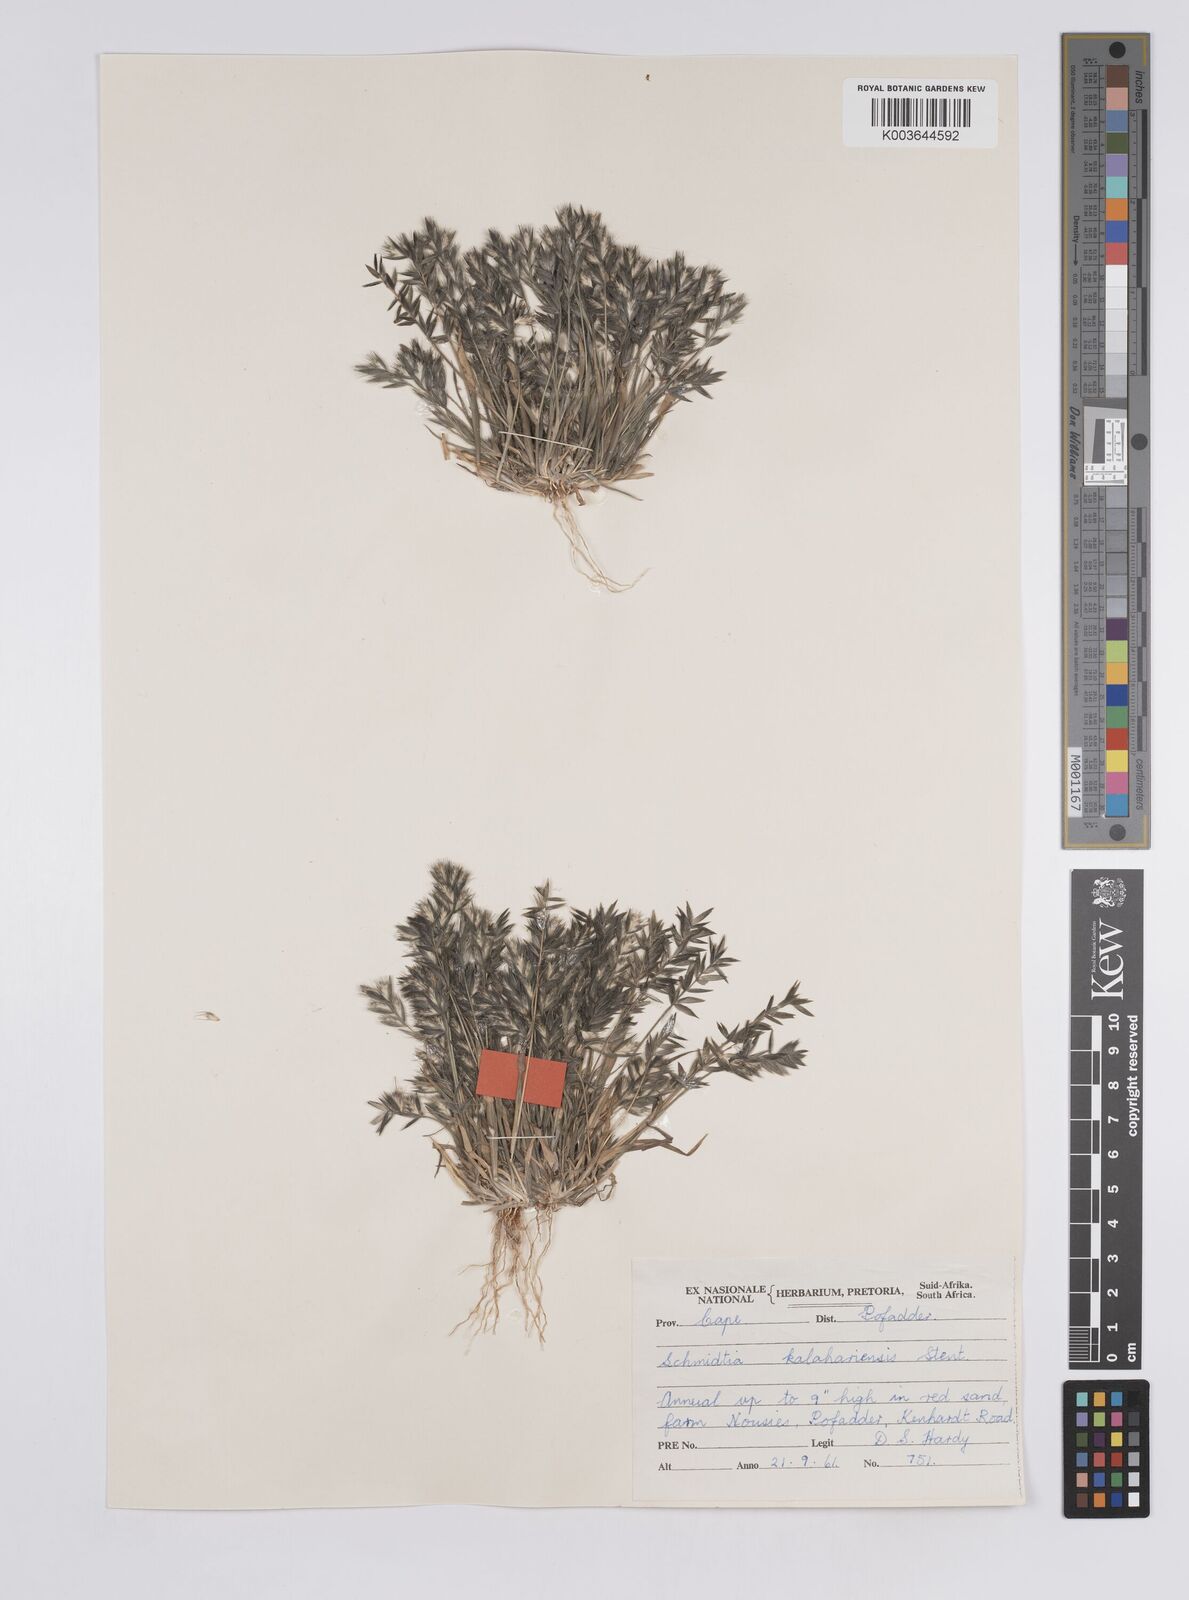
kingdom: Plantae
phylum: Tracheophyta
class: Liliopsida
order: Poales
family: Poaceae
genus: Schmidtia
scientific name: Schmidtia kalahariensis
